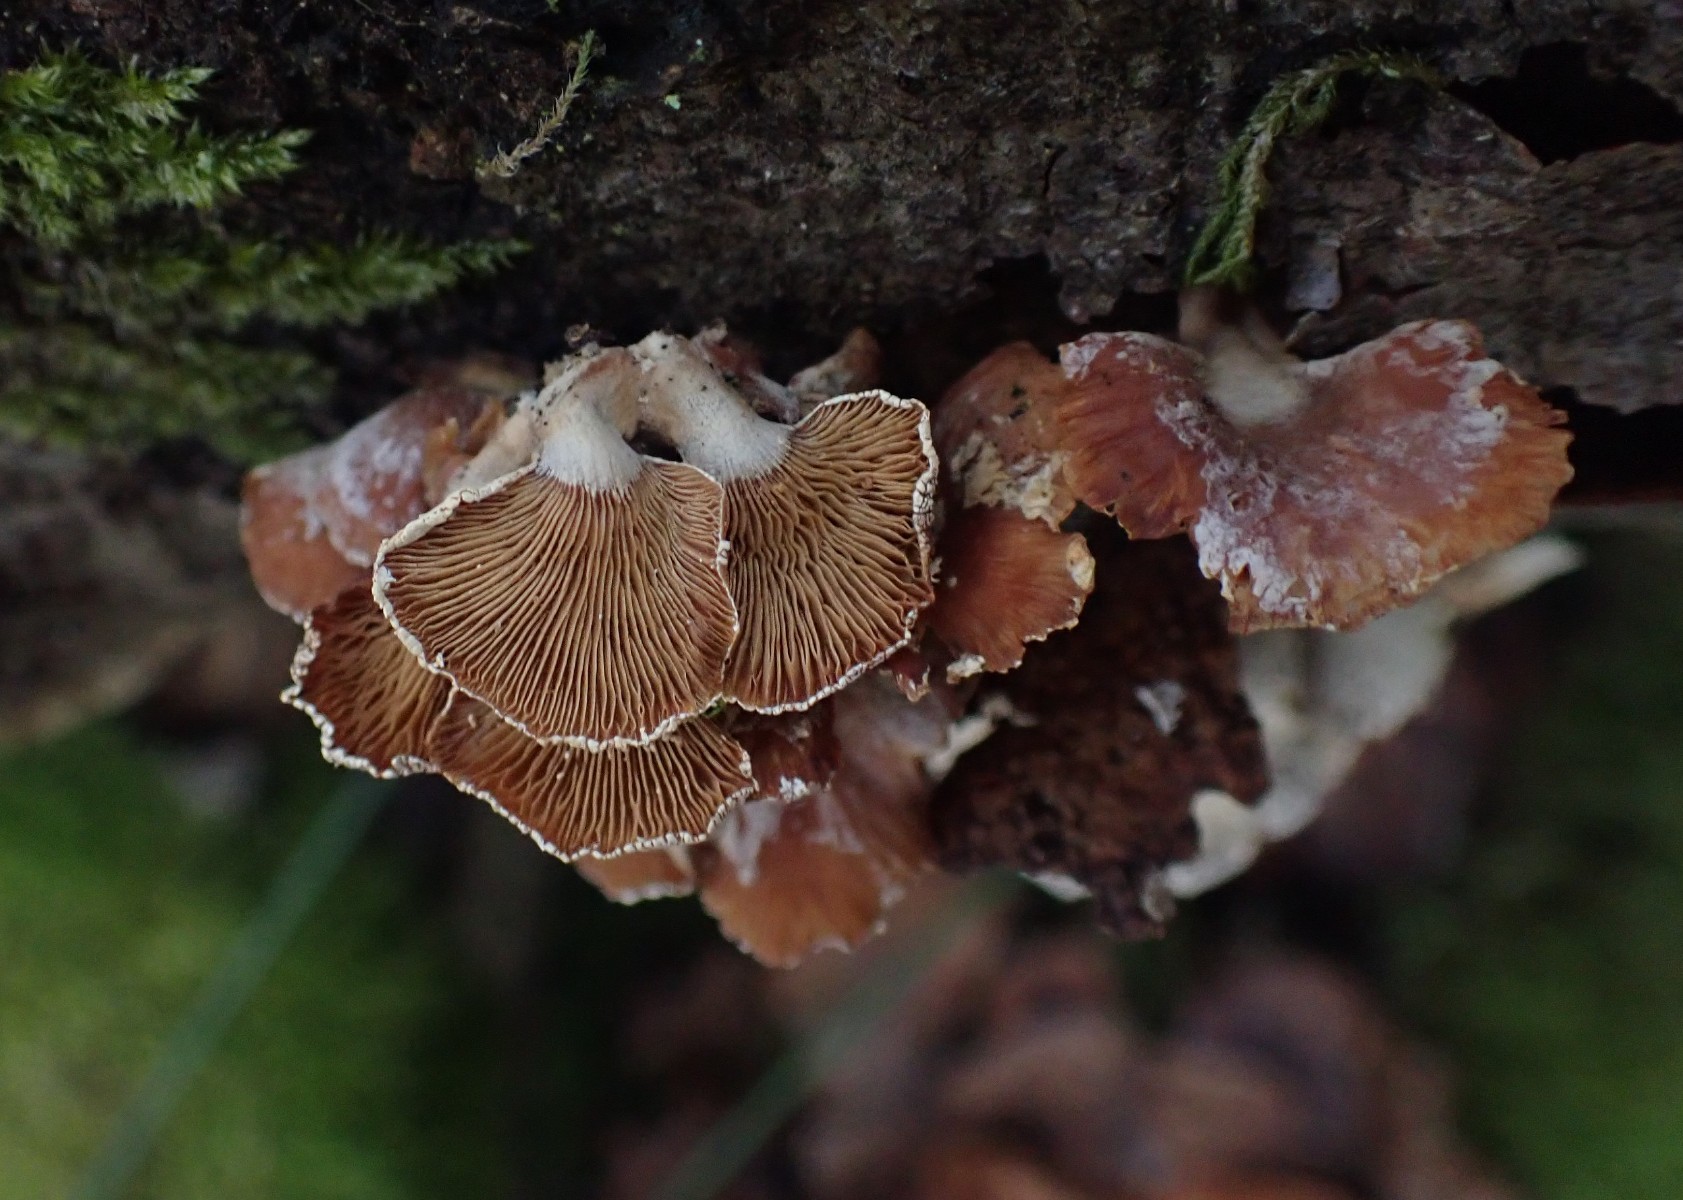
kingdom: Fungi
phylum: Basidiomycota
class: Agaricomycetes
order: Agaricales
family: Mycenaceae
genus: Panellus
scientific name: Panellus stipticus
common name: kliddet epaulethat
